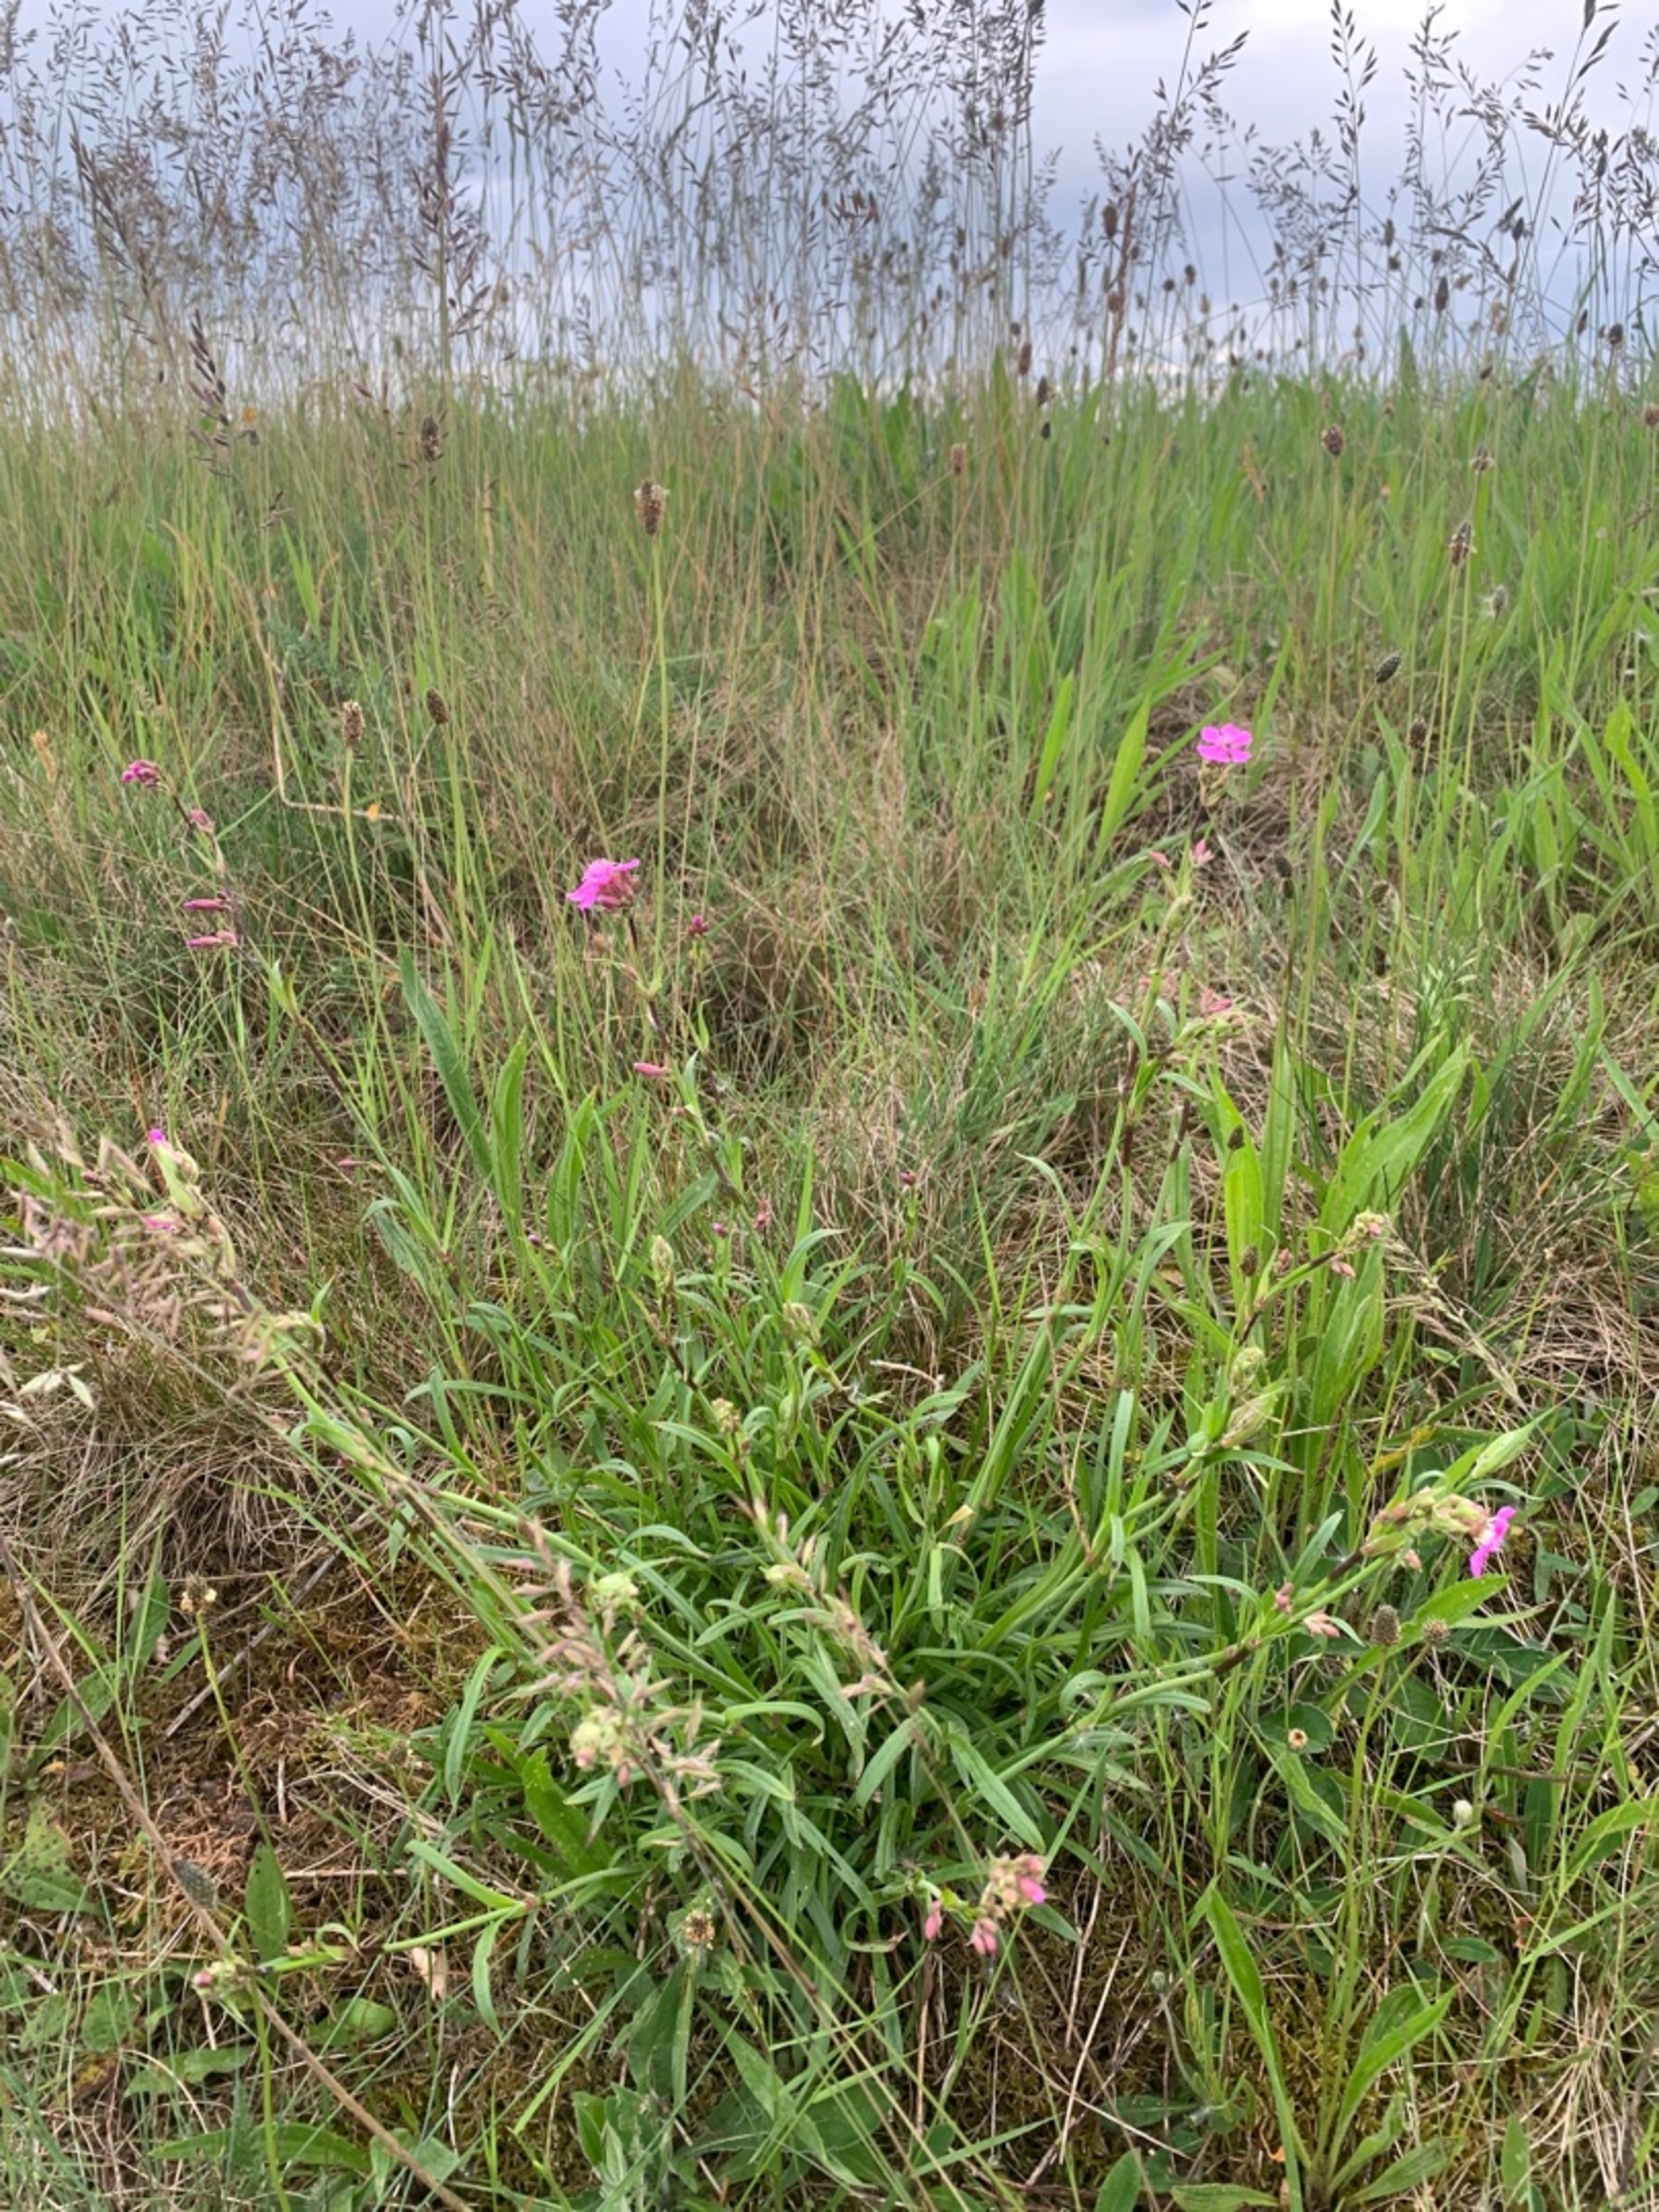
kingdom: Plantae
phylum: Tracheophyta
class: Magnoliopsida
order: Caryophyllales
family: Caryophyllaceae
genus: Viscaria
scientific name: Viscaria vulgaris
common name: Tjærenellike
